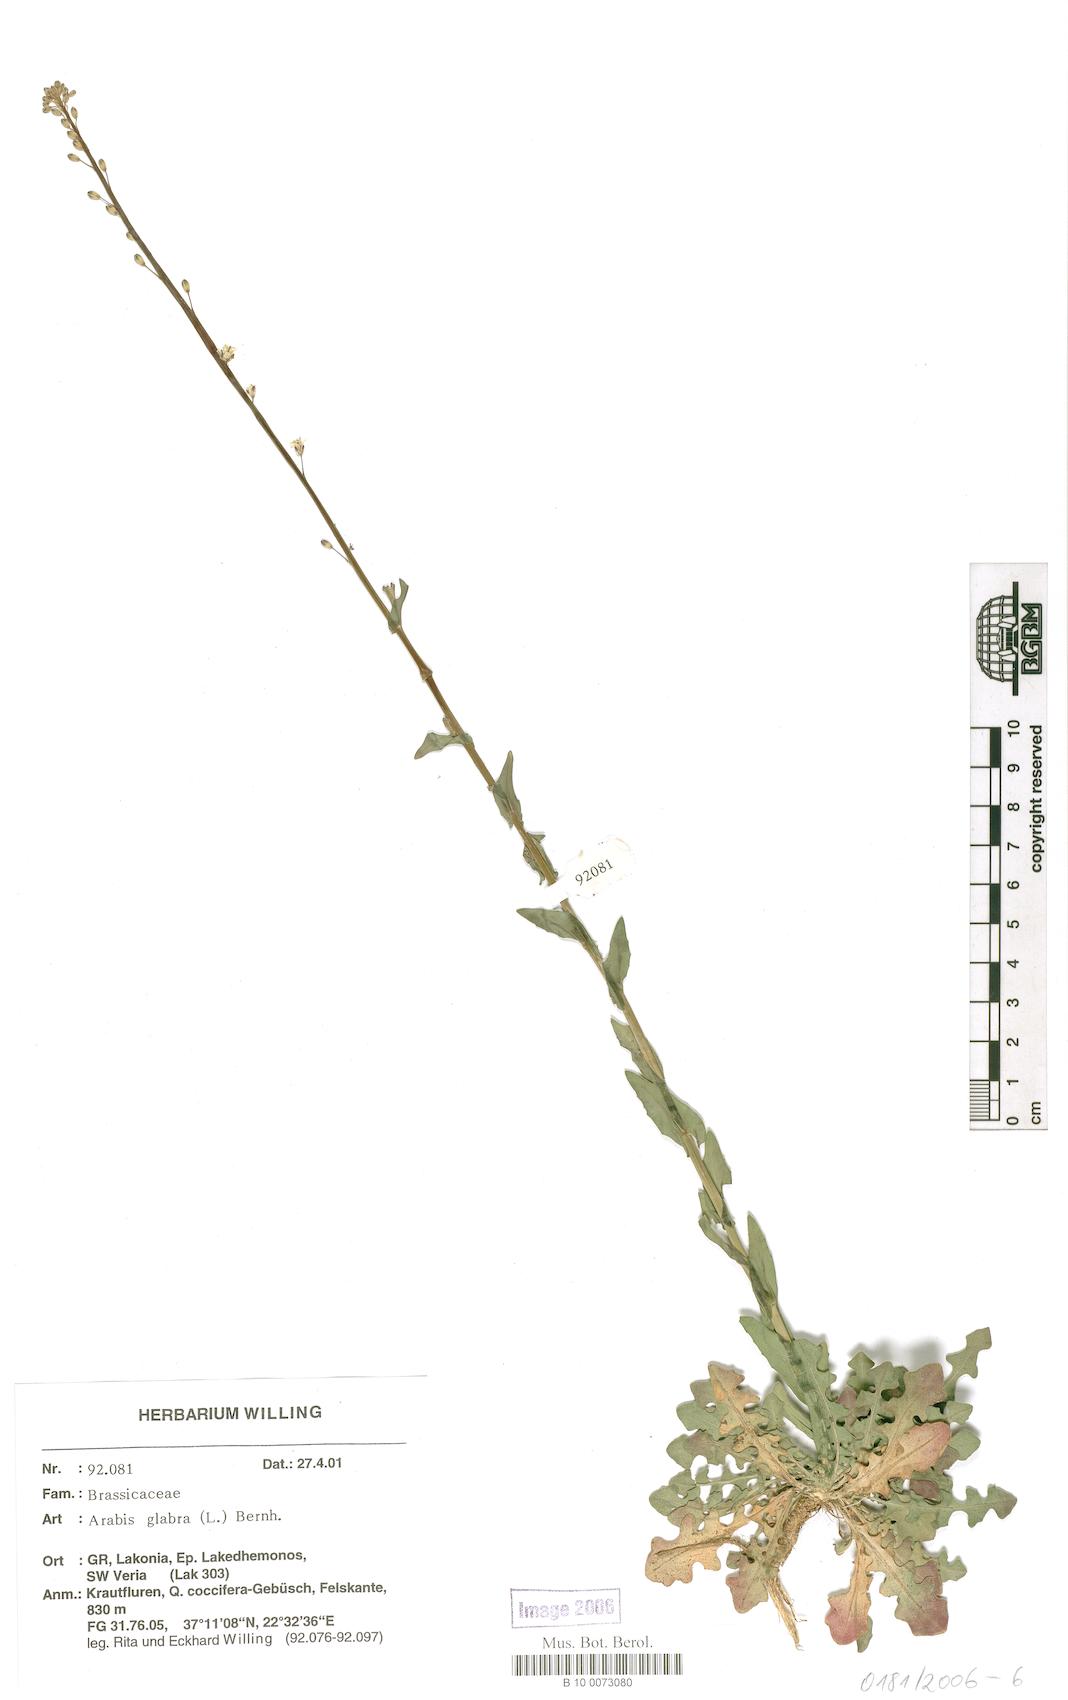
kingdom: Plantae
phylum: Tracheophyta
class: Magnoliopsida
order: Brassicales
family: Brassicaceae
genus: Turritis
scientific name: Turritis glabra
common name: Tower rockcress
